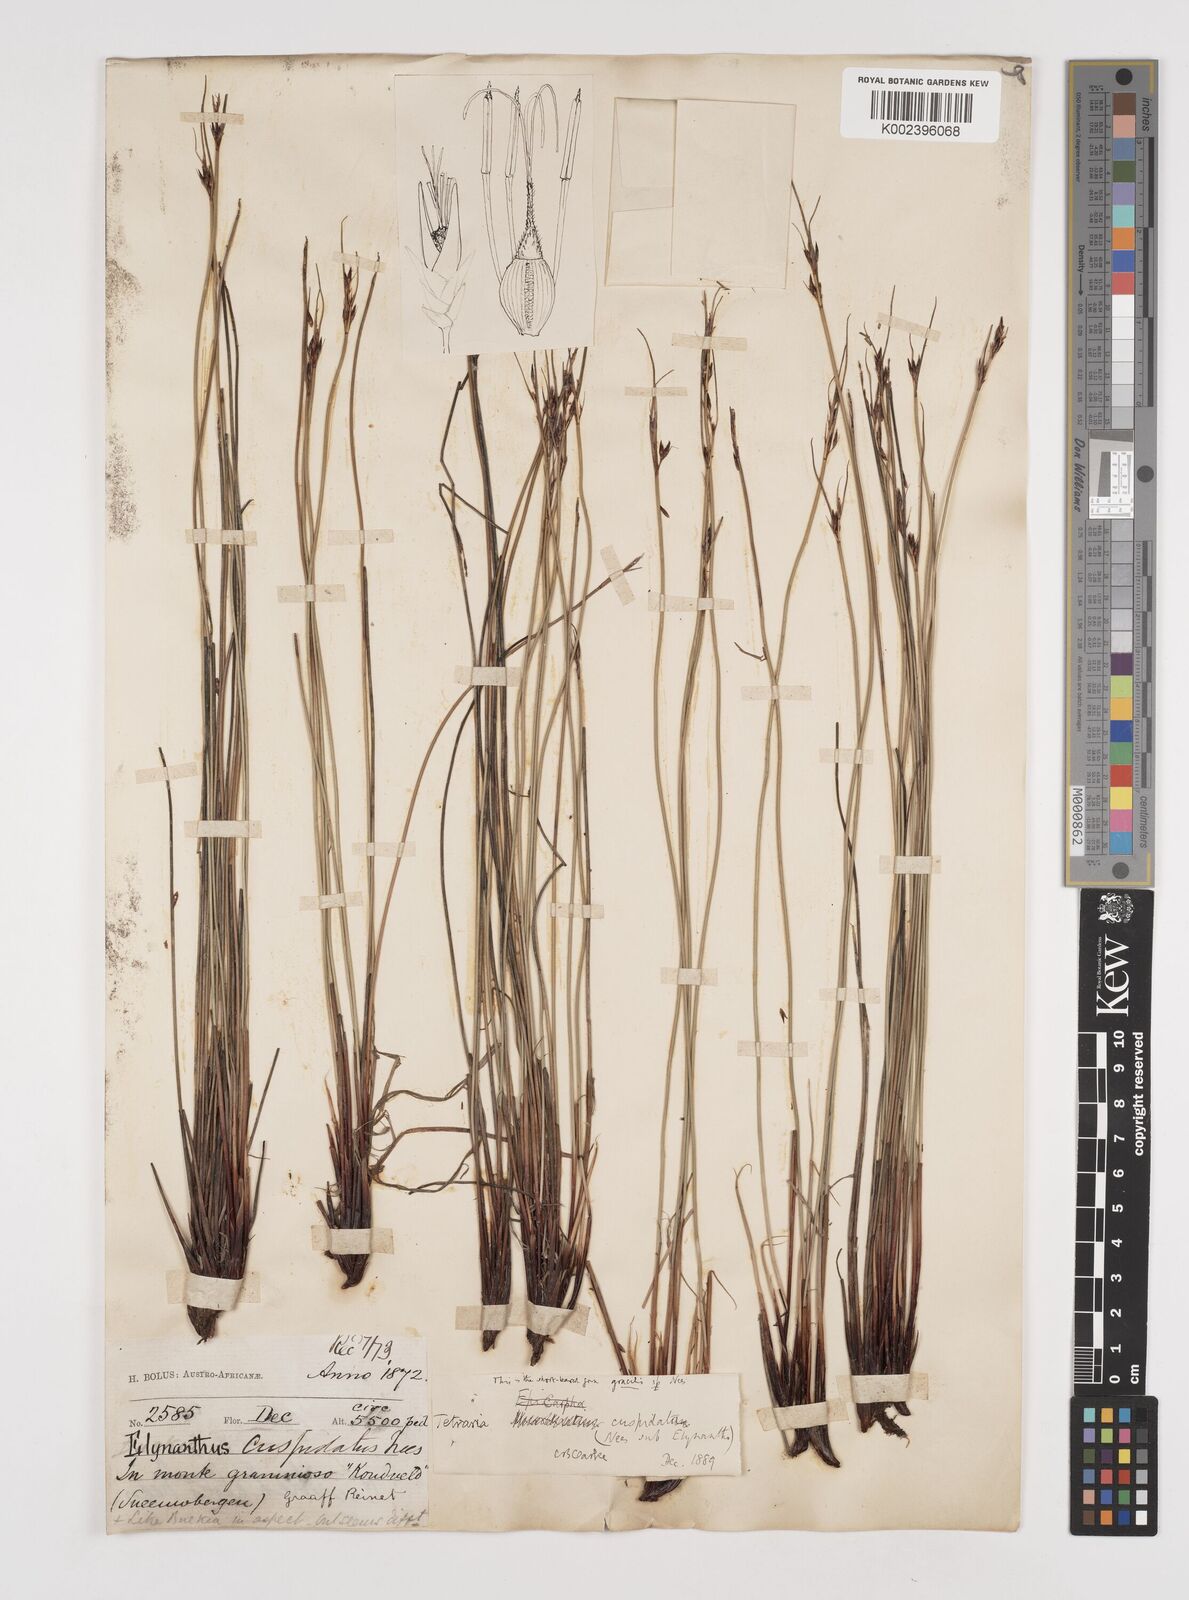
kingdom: Plantae
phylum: Tracheophyta
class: Liliopsida
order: Poales
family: Cyperaceae
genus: Schoenus
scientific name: Schoenus cuspidatus
